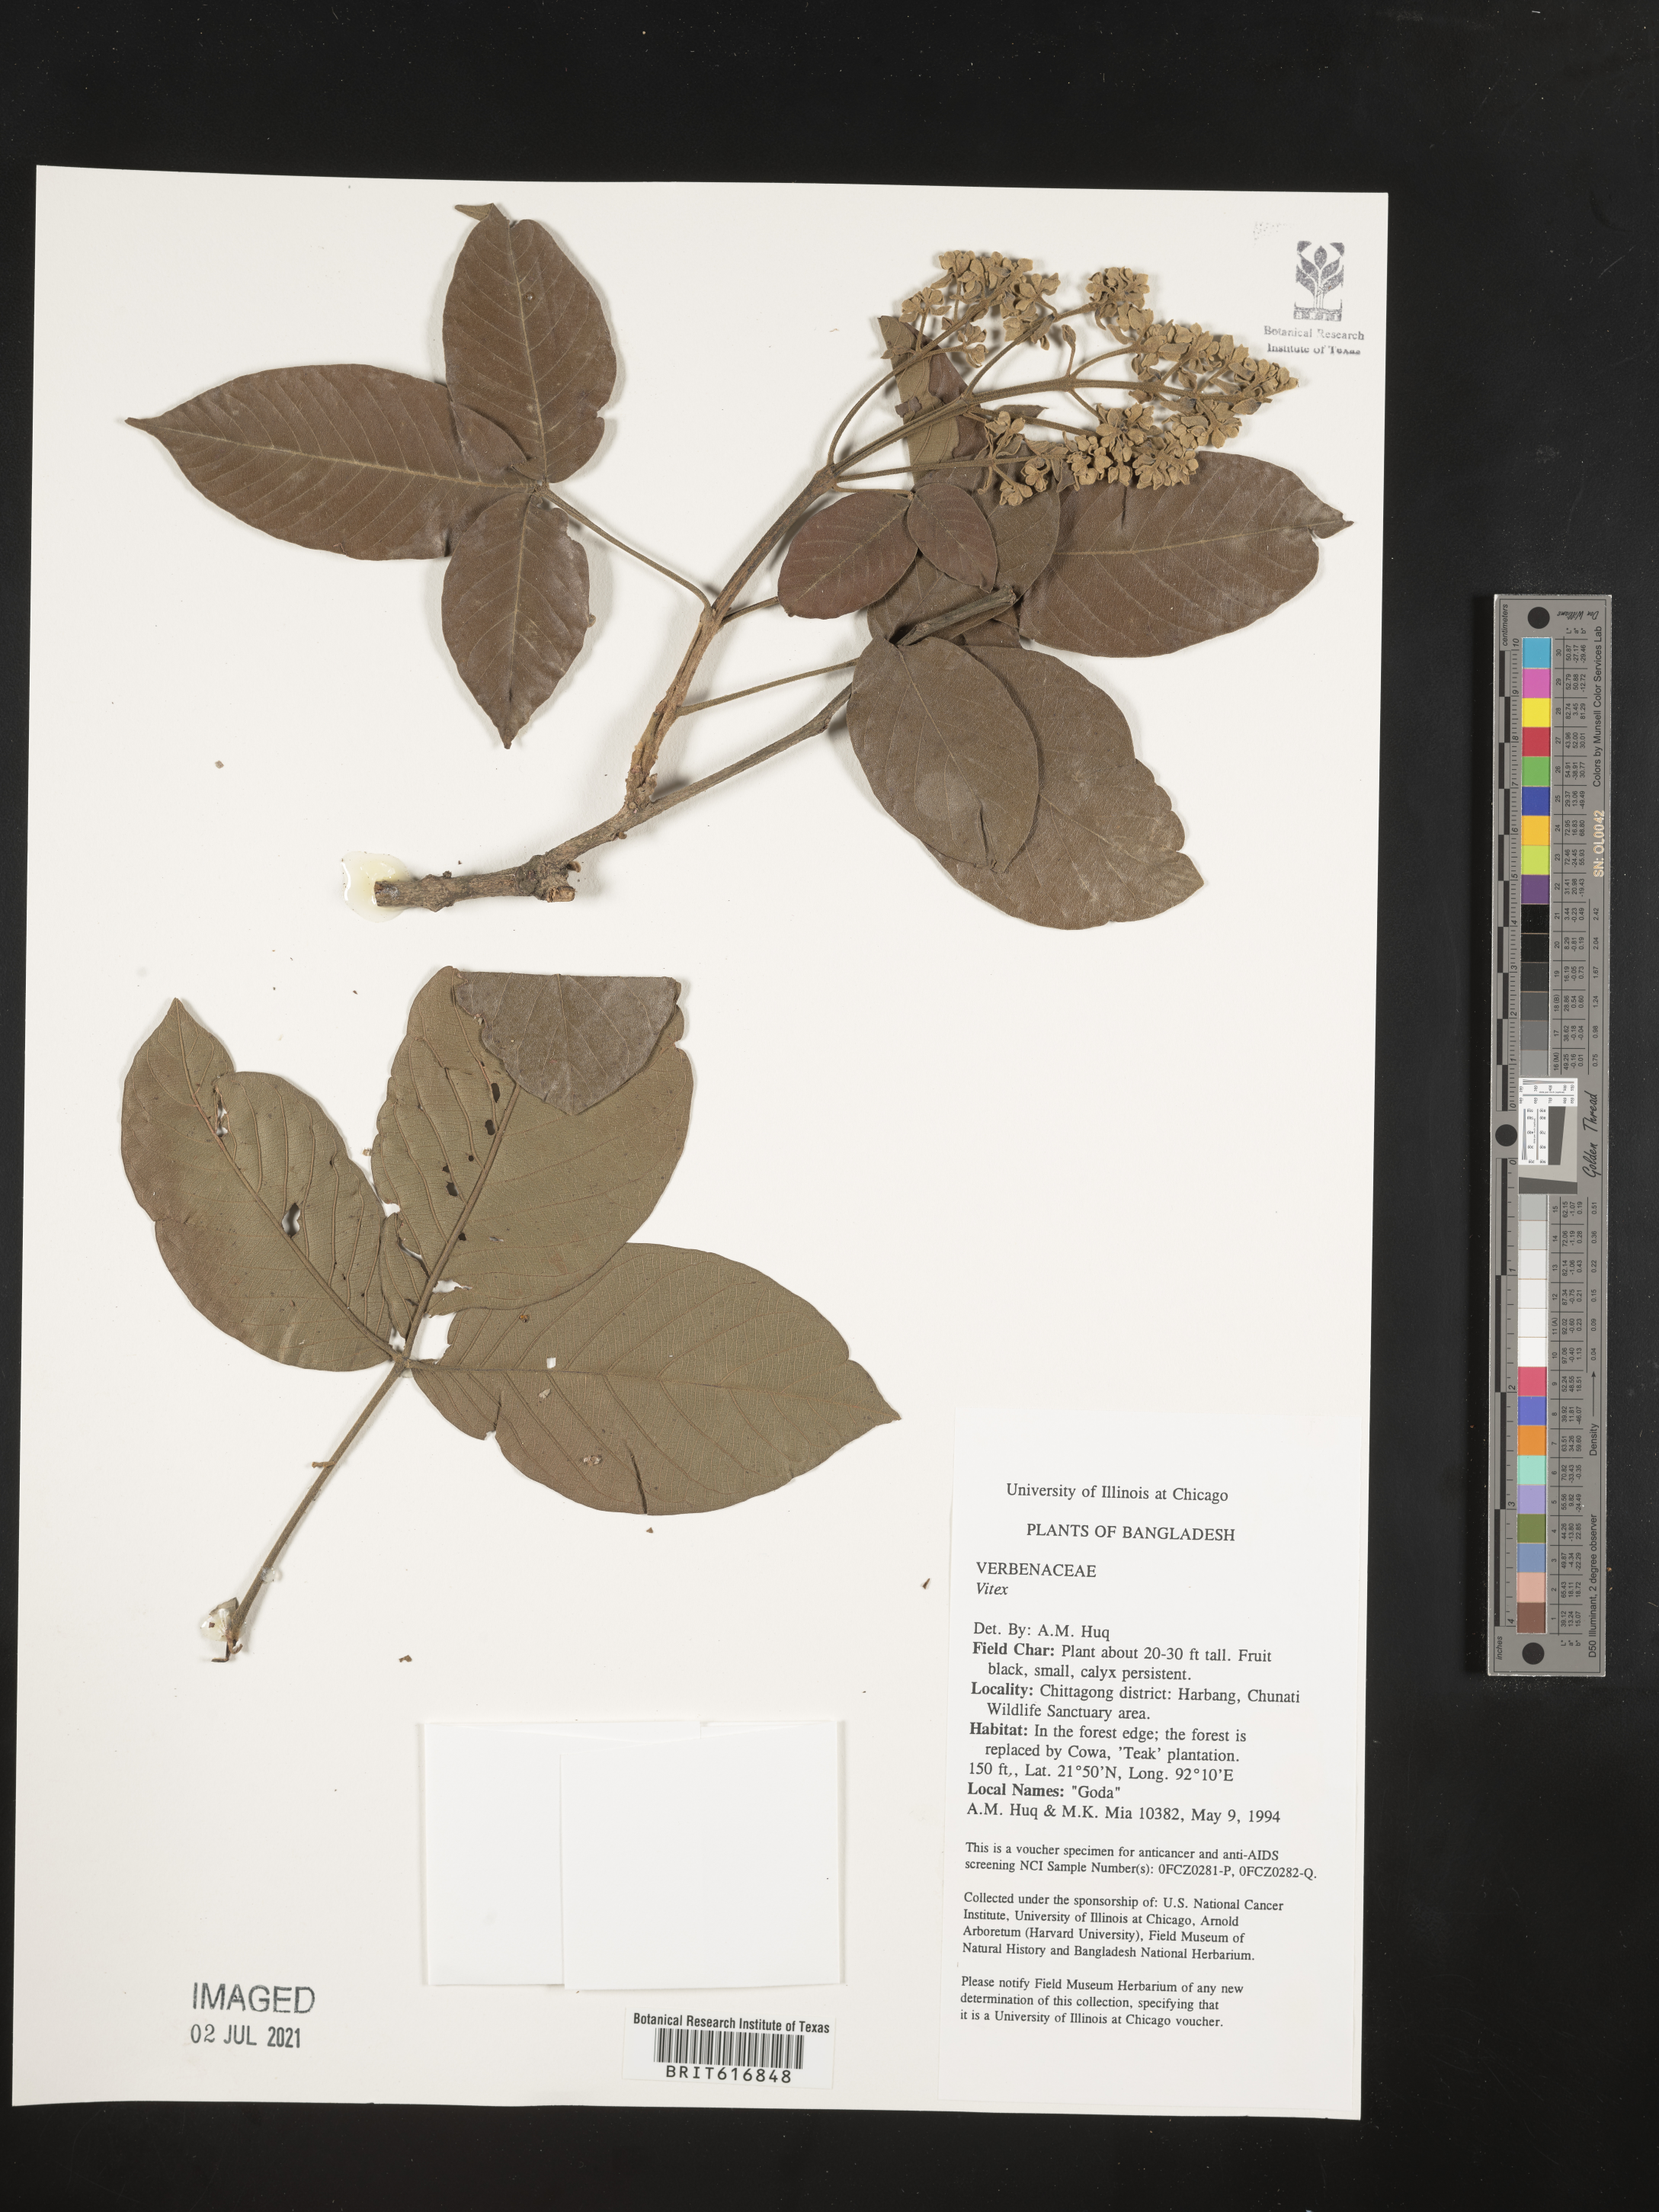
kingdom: Plantae
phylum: Tracheophyta
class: Magnoliopsida
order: Lamiales
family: Lamiaceae
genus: Vitex
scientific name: Vitex
